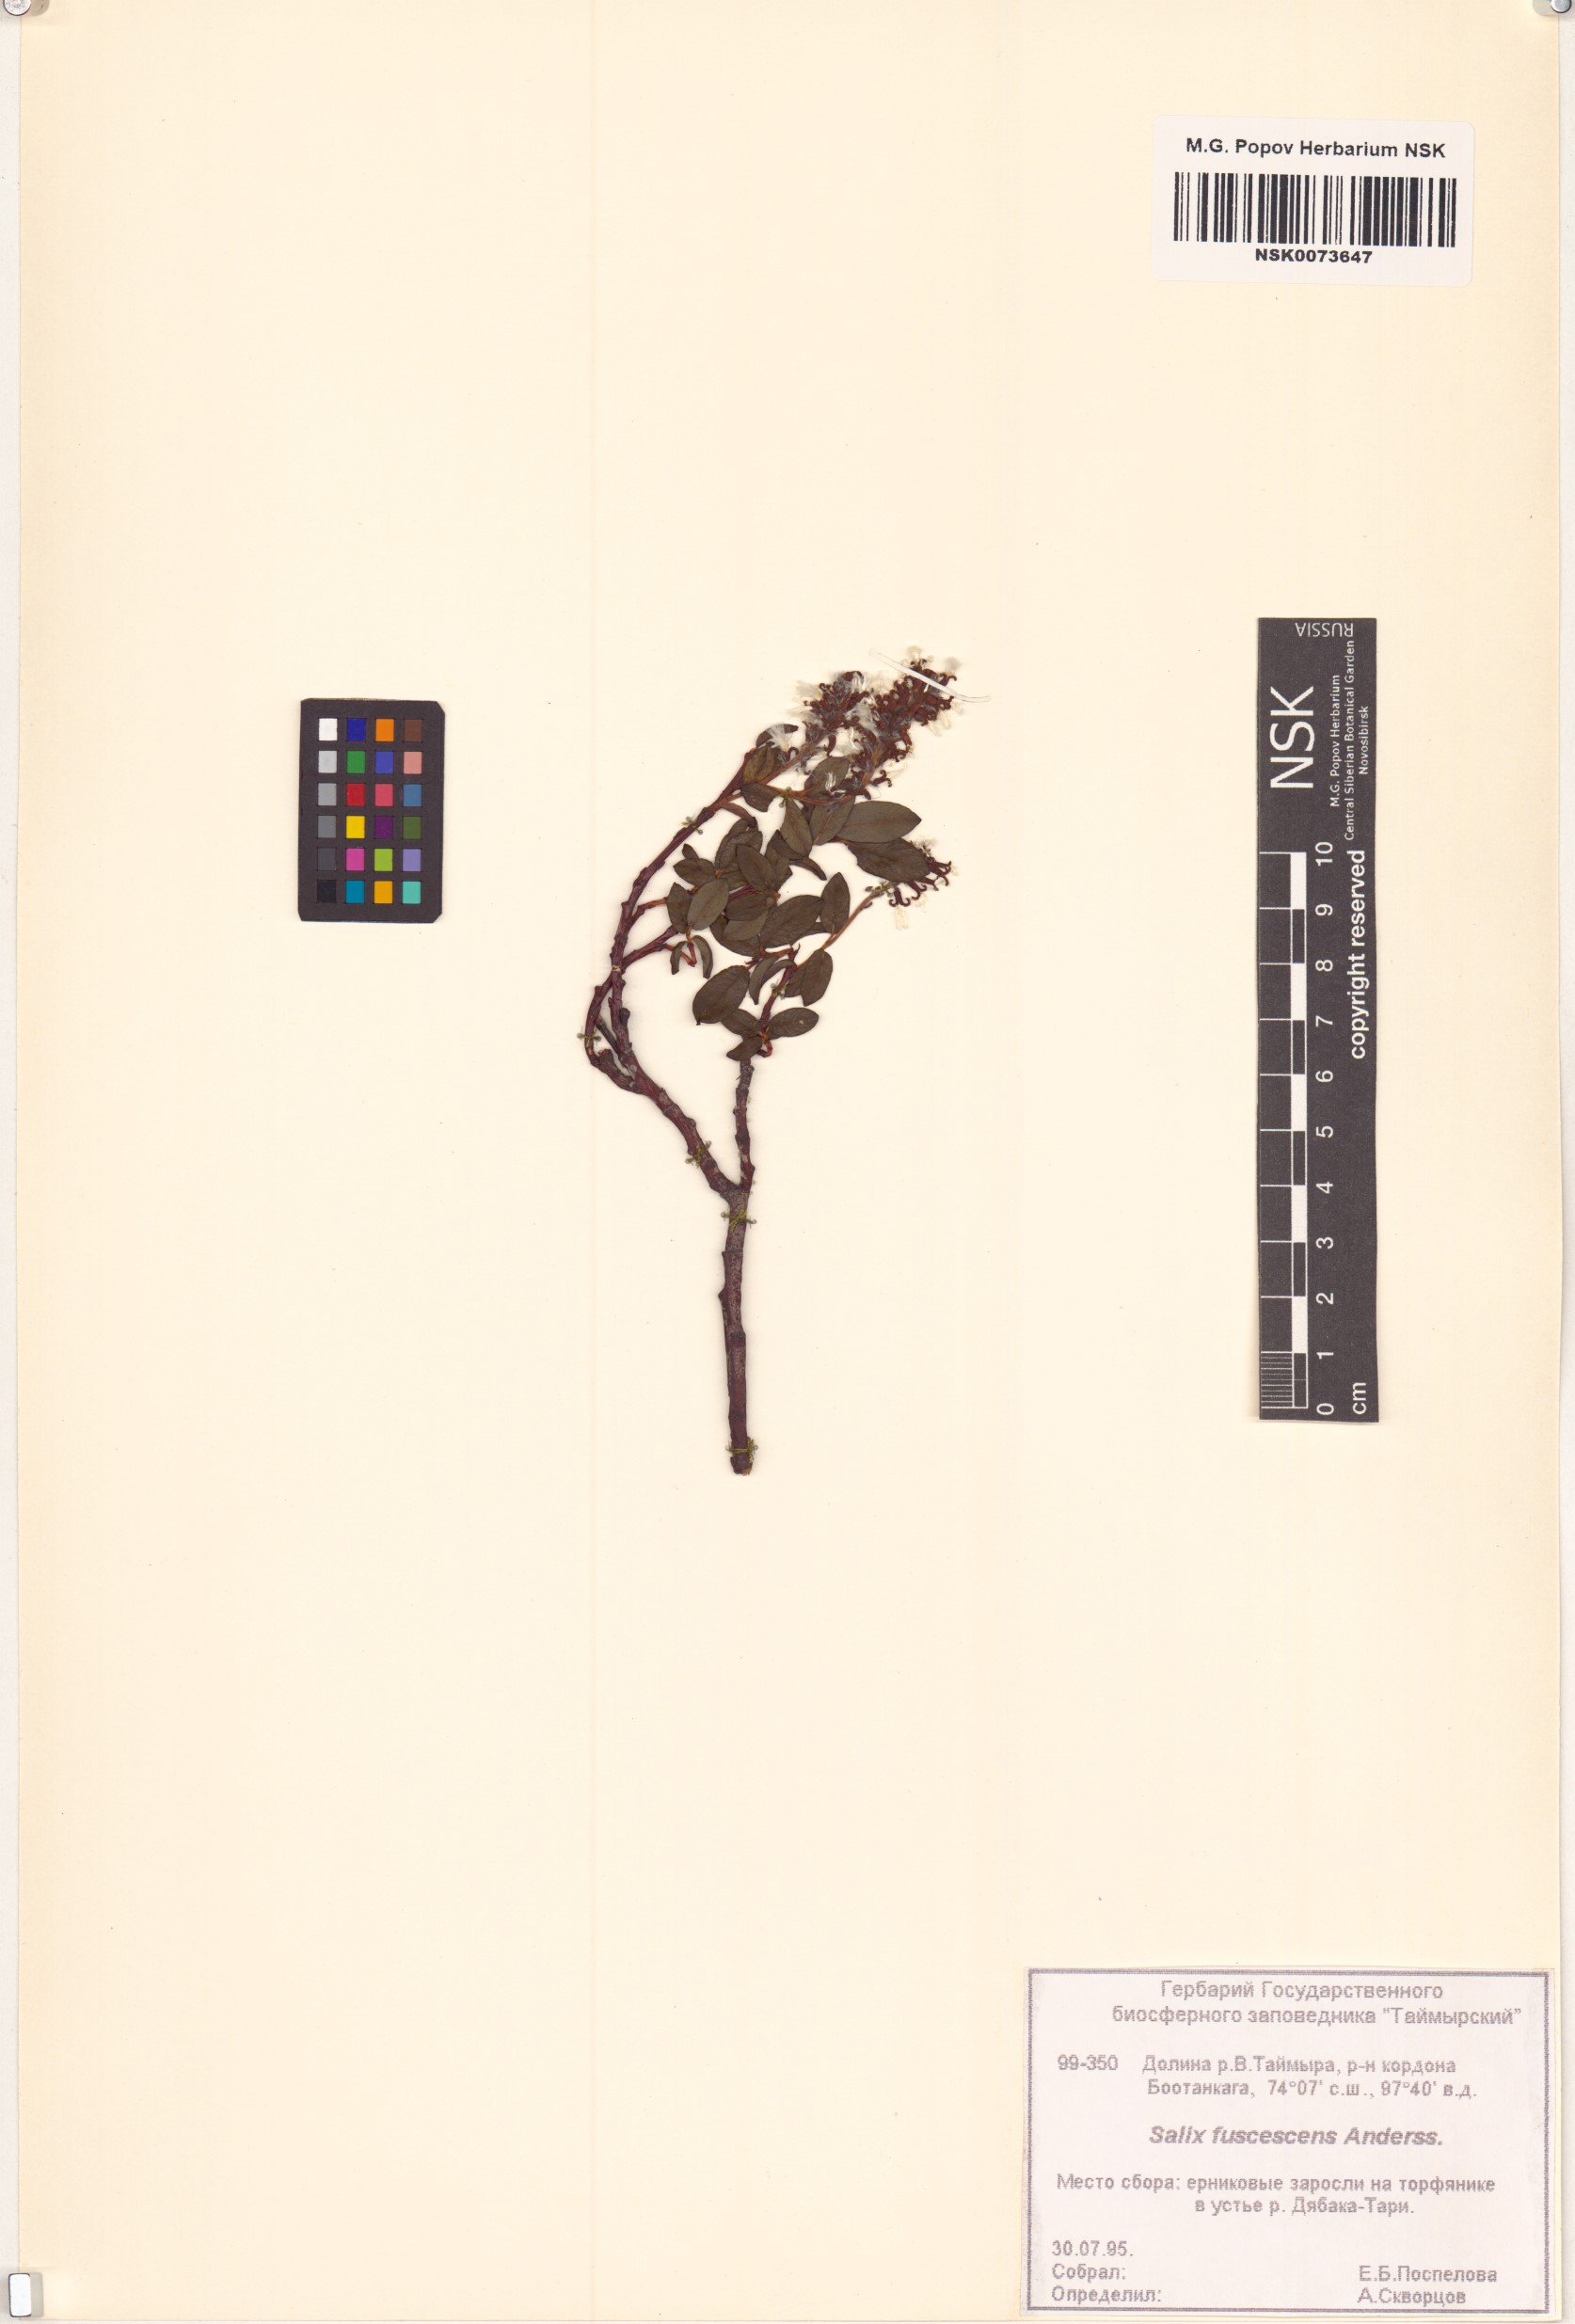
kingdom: Plantae
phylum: Tracheophyta
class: Magnoliopsida
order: Malpighiales
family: Salicaceae
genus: Salix
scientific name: Salix fuscescens
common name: Brownish willow
